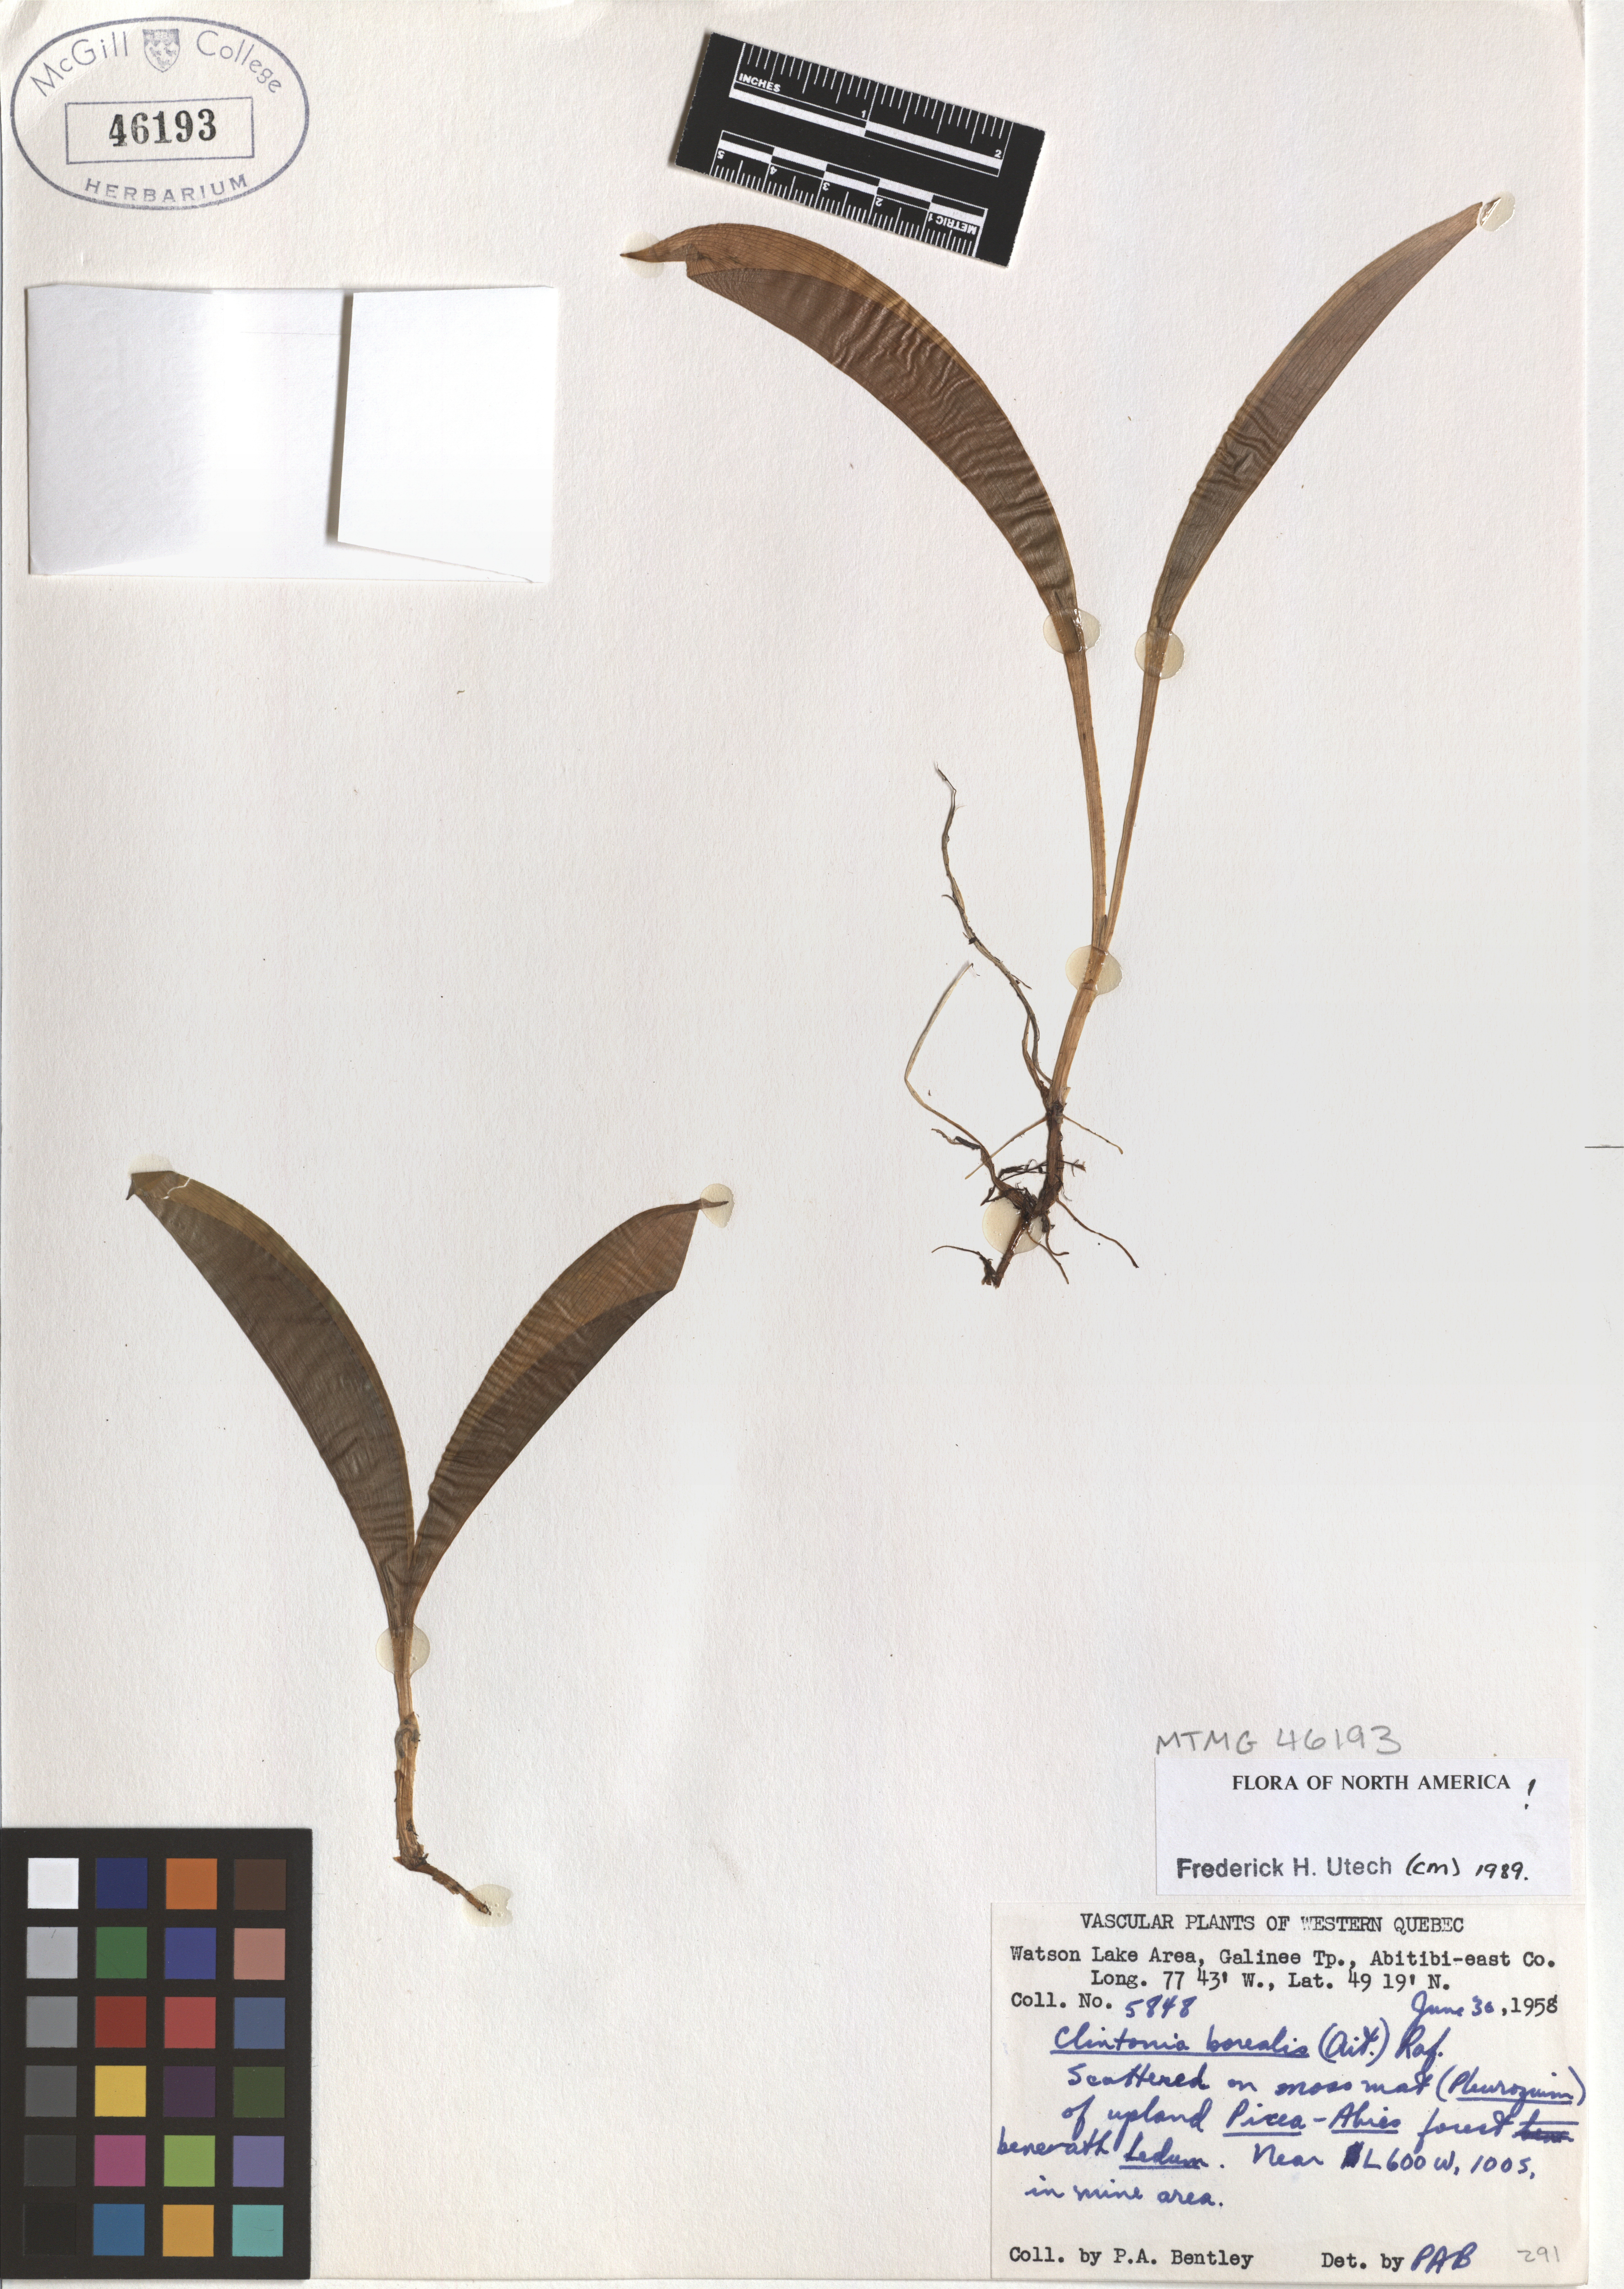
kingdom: Plantae
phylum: Tracheophyta
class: Liliopsida
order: Liliales
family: Liliaceae
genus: Clintonia
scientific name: Clintonia borealis
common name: Yellow clintonia
